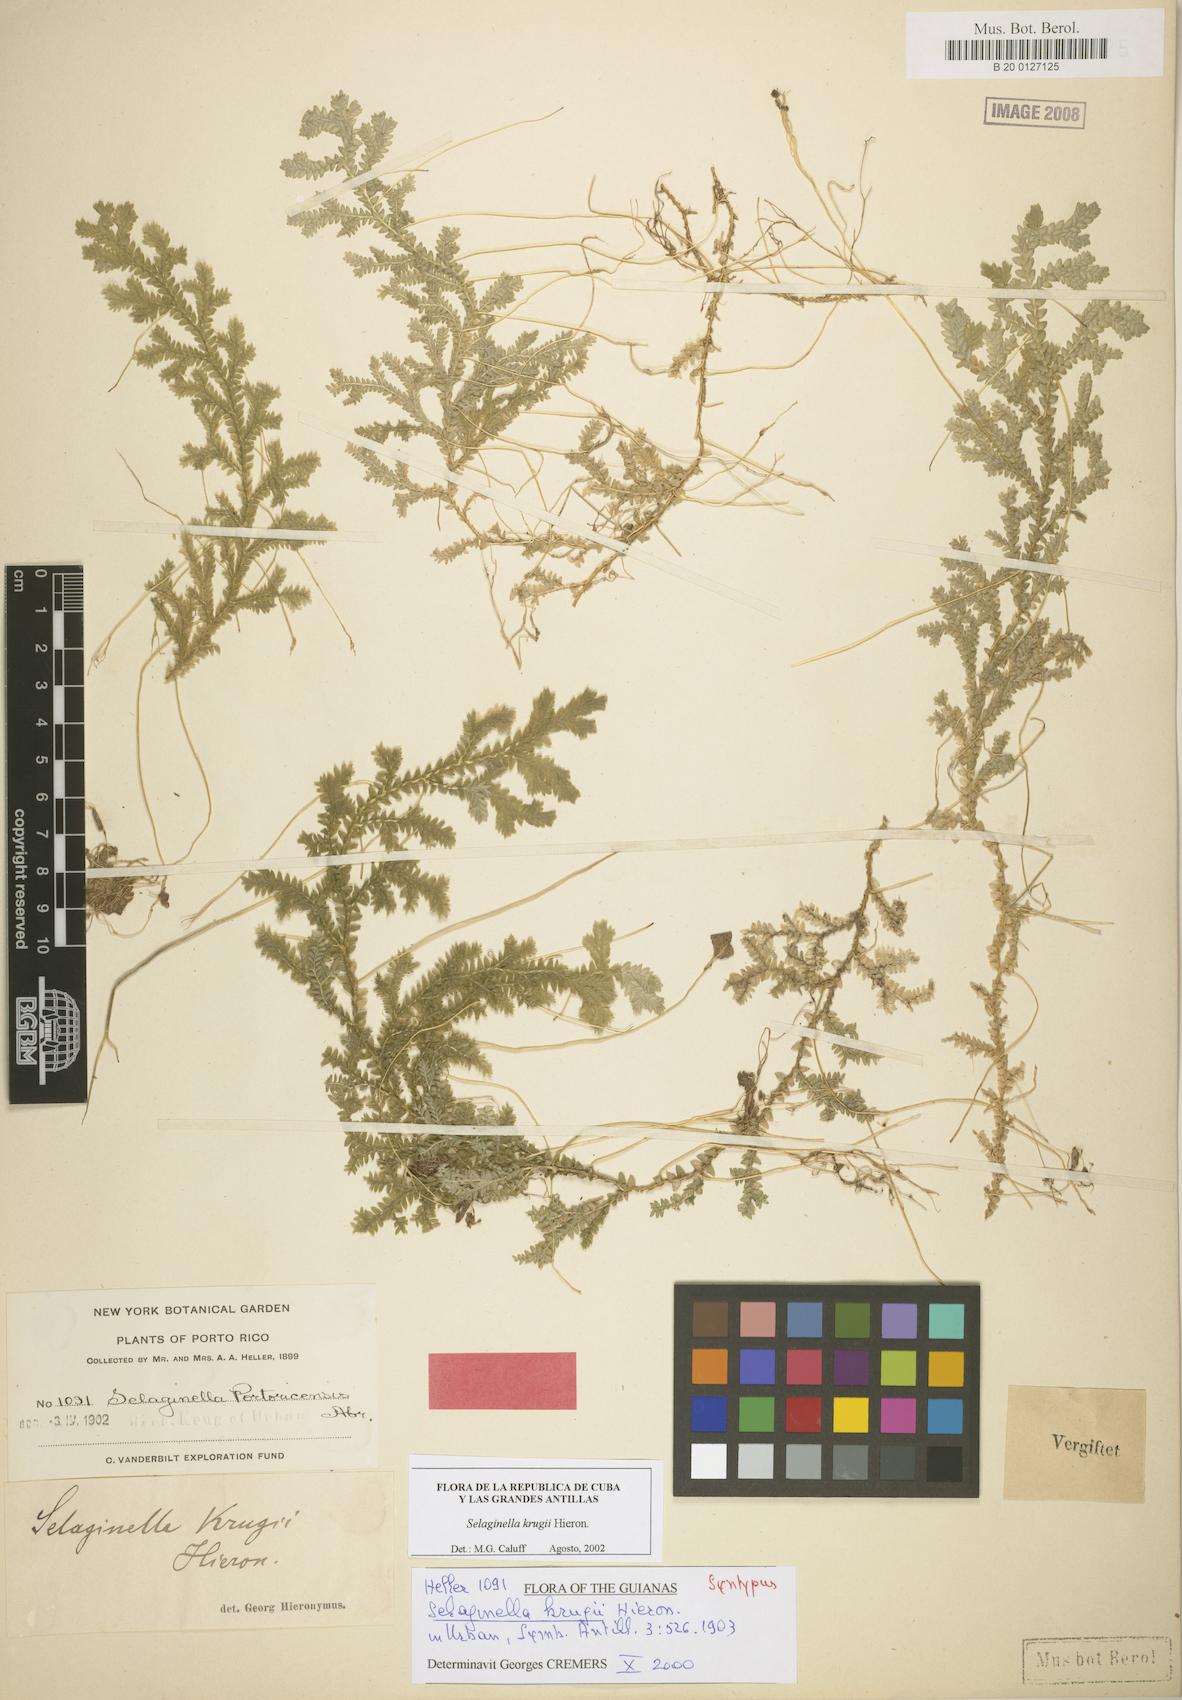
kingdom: Plantae
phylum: Tracheophyta
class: Lycopodiopsida
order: Selaginellales
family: Selaginellaceae
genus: Selaginella
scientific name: Selaginella krugii
